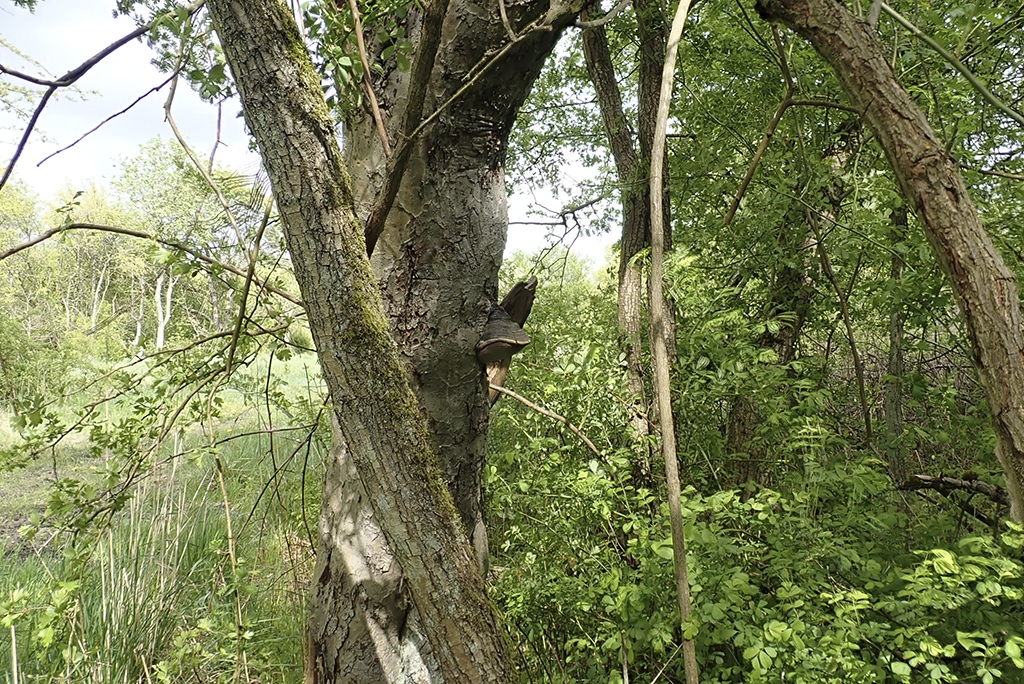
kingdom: Fungi
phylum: Basidiomycota
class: Agaricomycetes
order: Hymenochaetales
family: Hymenochaetaceae
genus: Phellinus
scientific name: Phellinus igniarius
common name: elle-ildporesvamp
